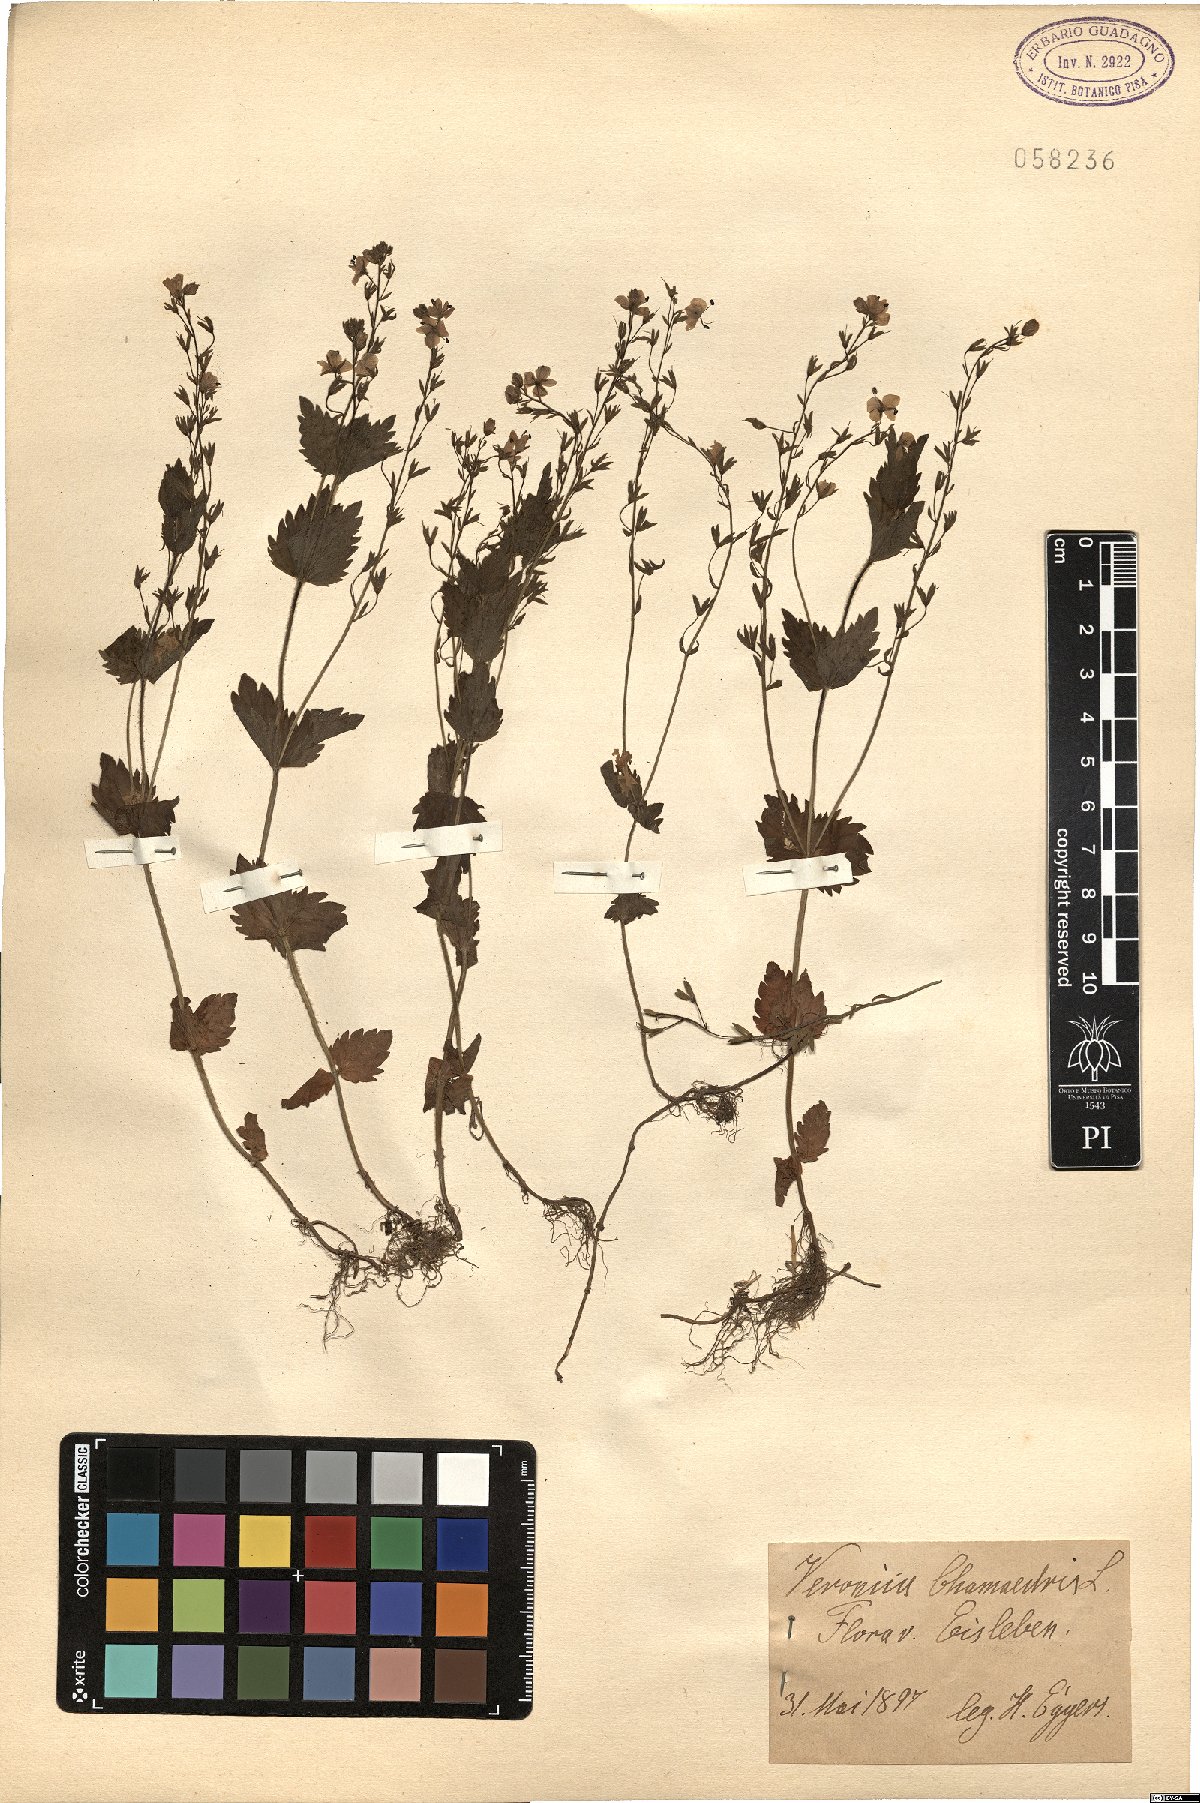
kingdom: Plantae
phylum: Tracheophyta
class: Magnoliopsida
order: Lamiales
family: Plantaginaceae
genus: Veronica
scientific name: Veronica chamaedrys
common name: Germander speedwell
